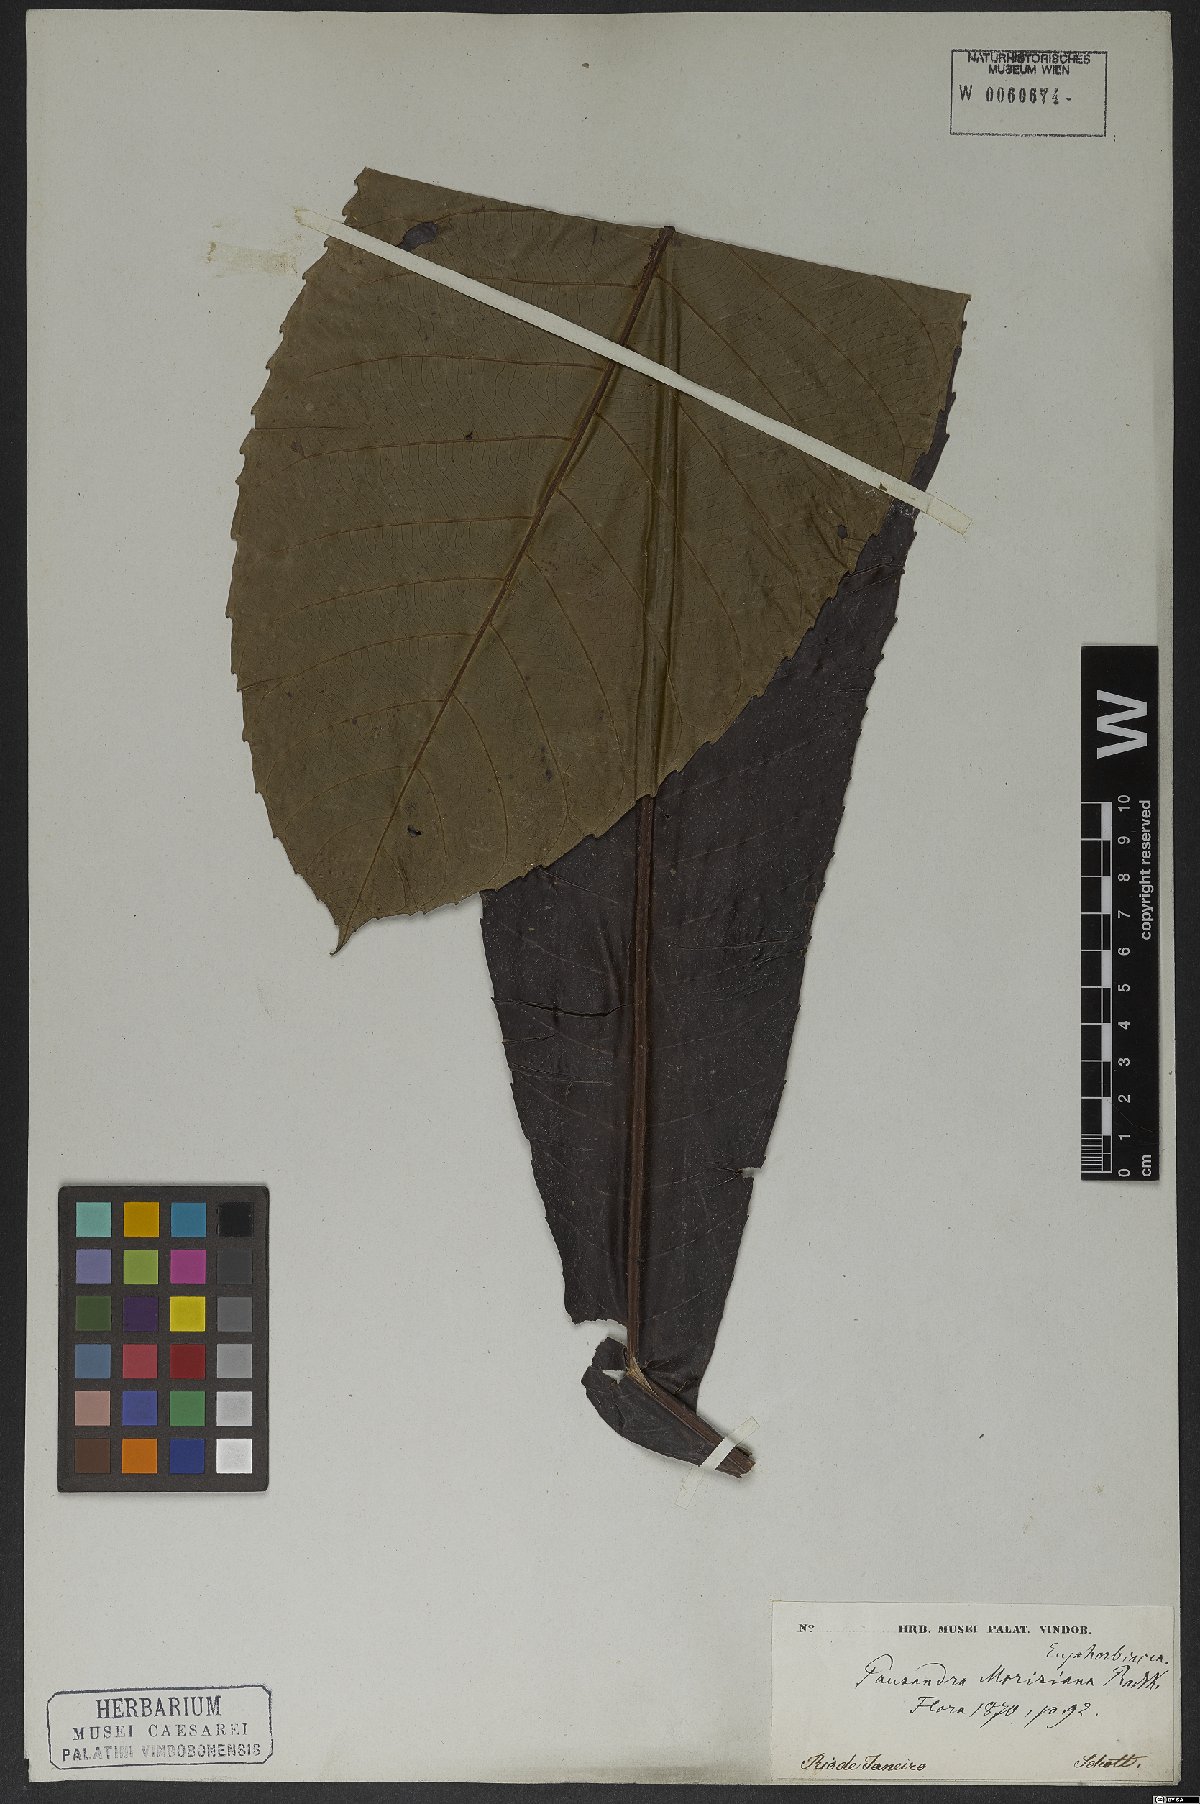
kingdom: Plantae
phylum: Tracheophyta
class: Magnoliopsida
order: Malpighiales
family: Euphorbiaceae
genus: Pausandra
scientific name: Pausandra morisiana
